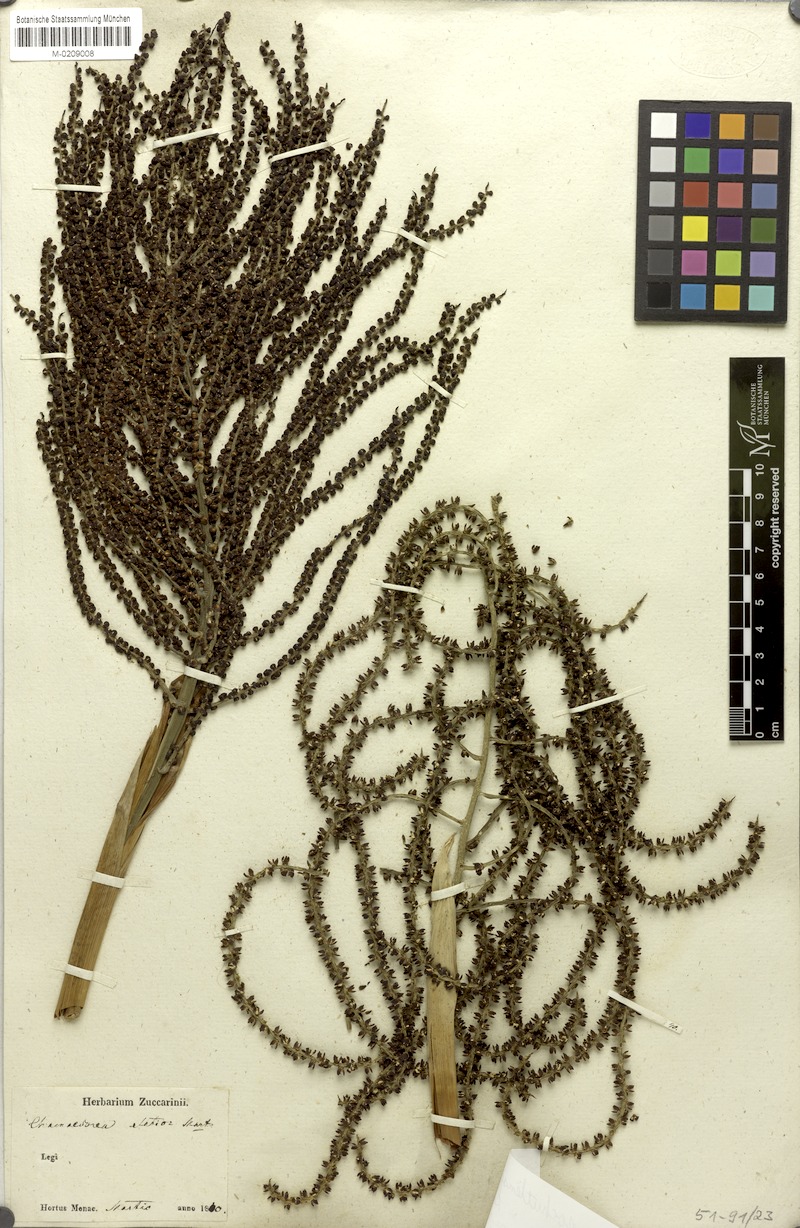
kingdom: Plantae
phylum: Tracheophyta
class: Liliopsida
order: Arecales
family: Arecaceae
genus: Chamaedorea
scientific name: Chamaedorea pochutlensis
